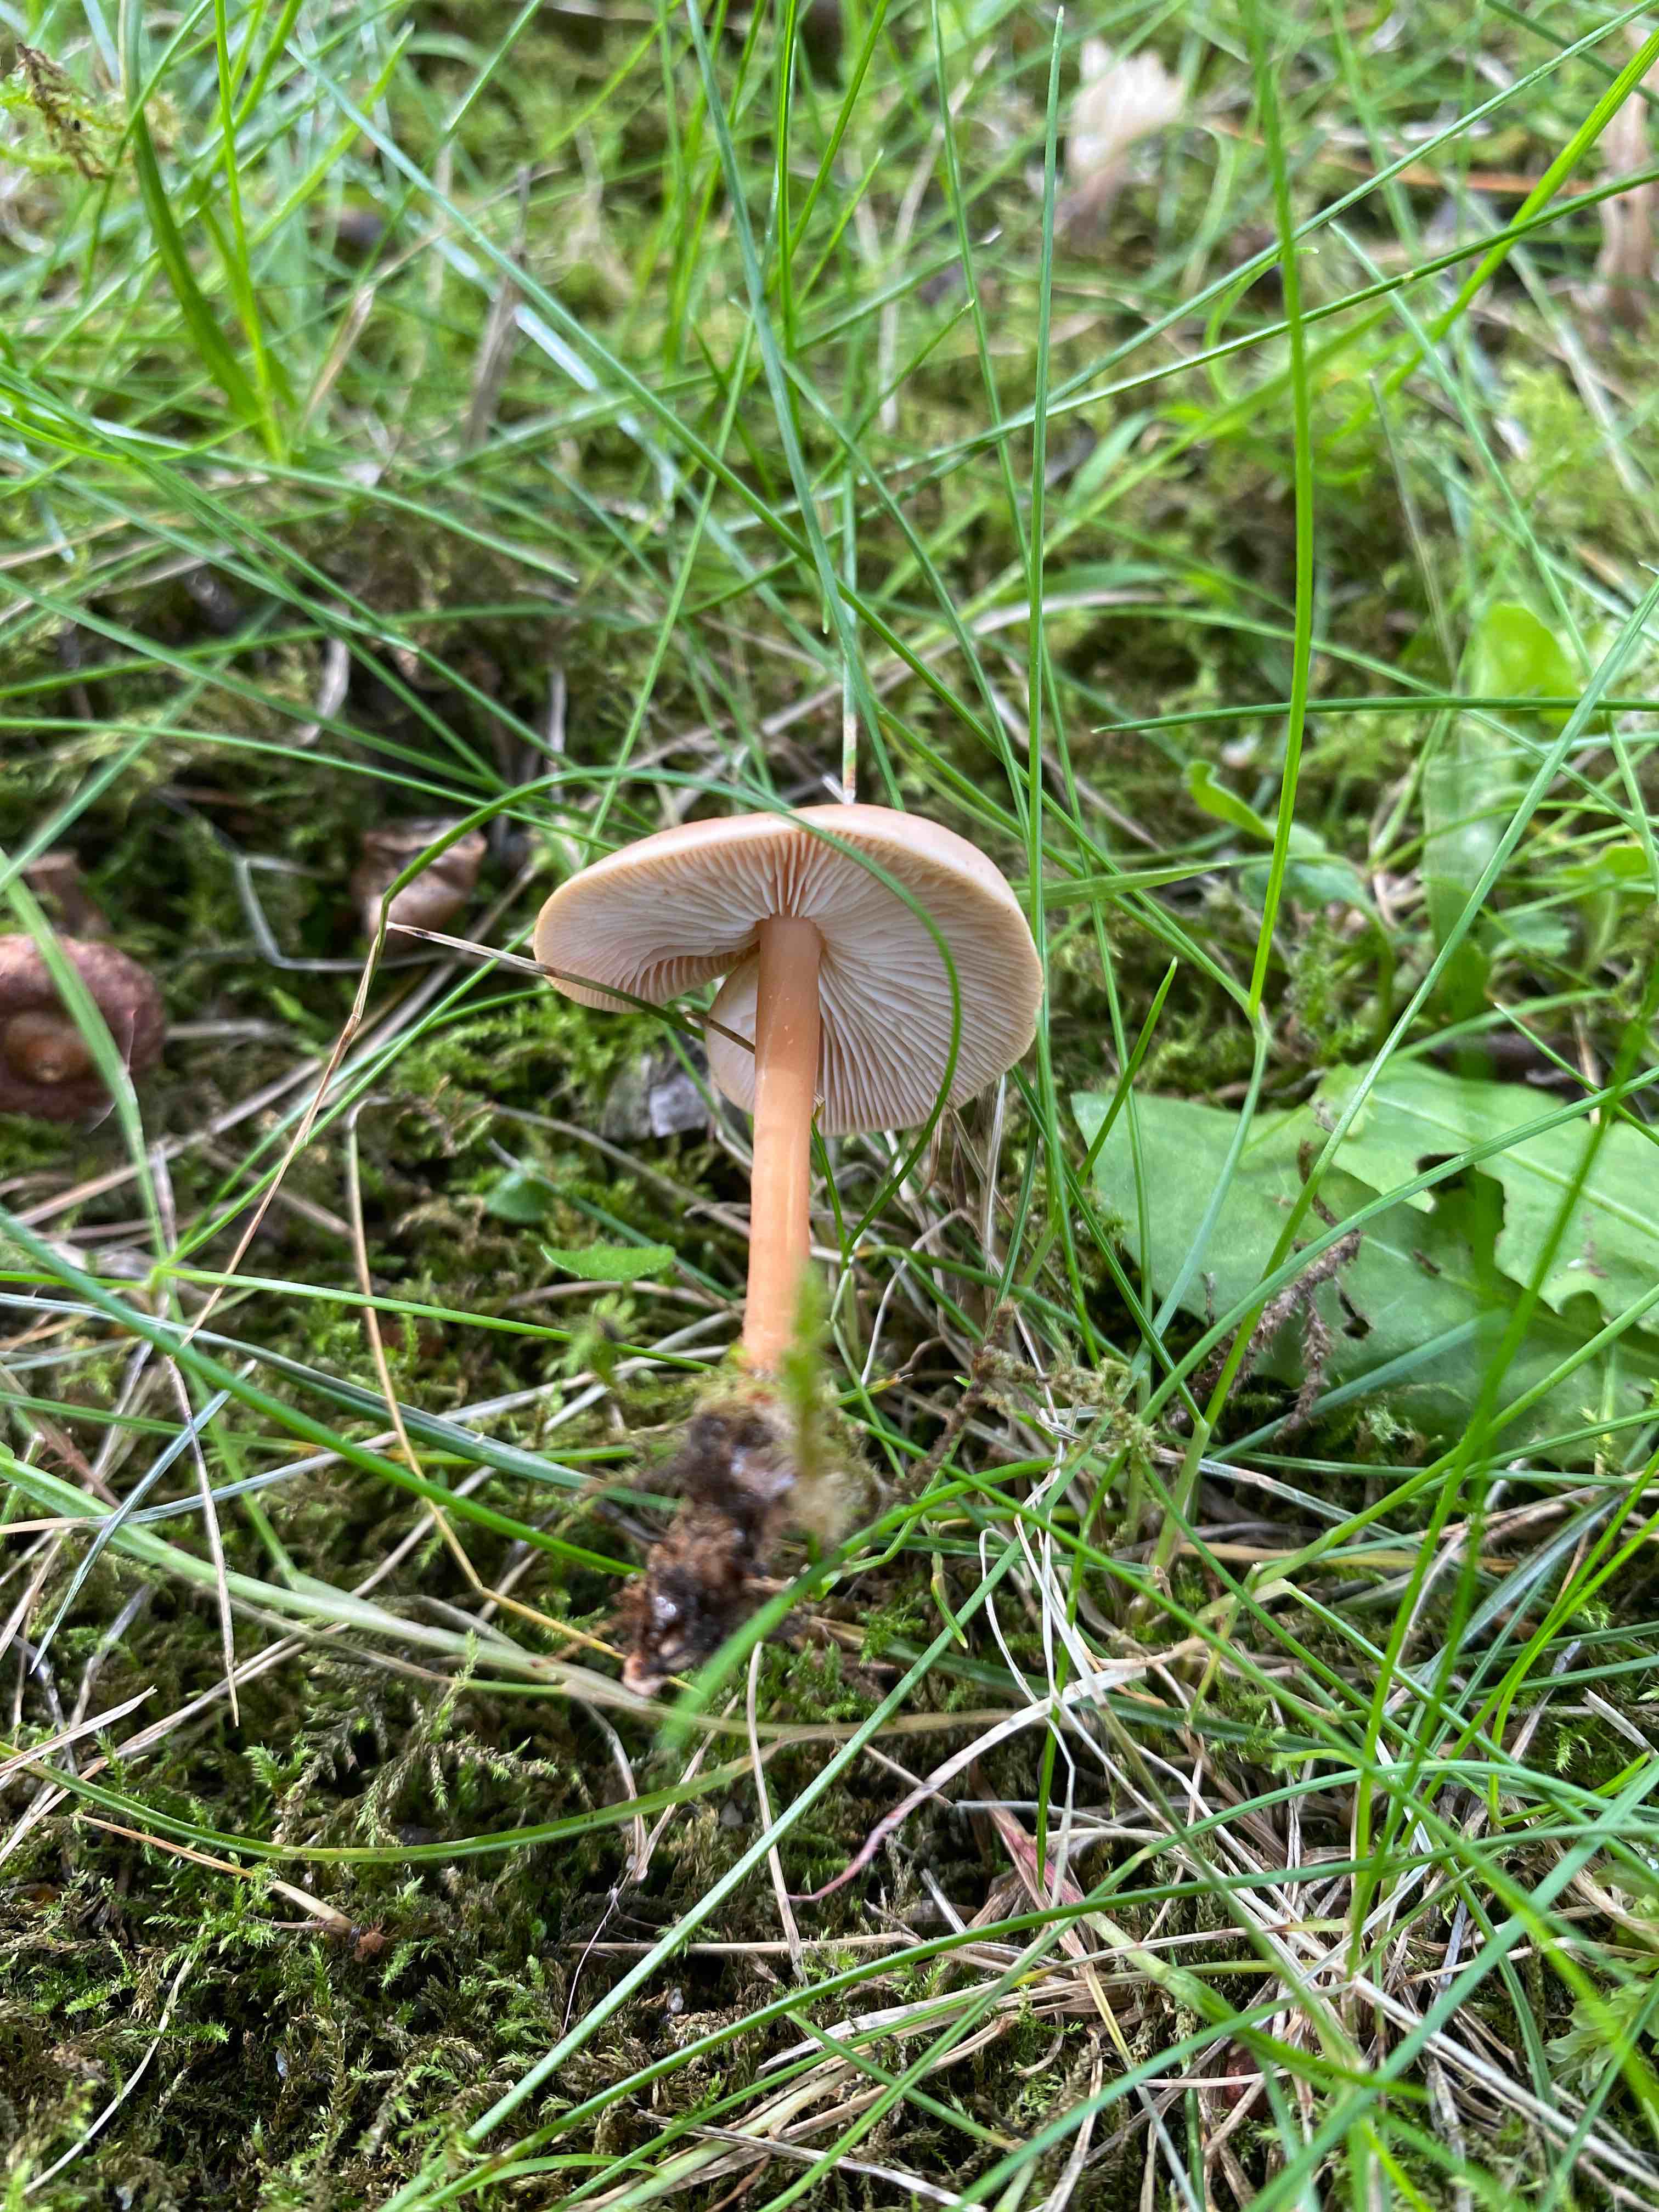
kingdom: Fungi
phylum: Basidiomycota
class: Agaricomycetes
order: Agaricales
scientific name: Agaricales
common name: champignonordenen
